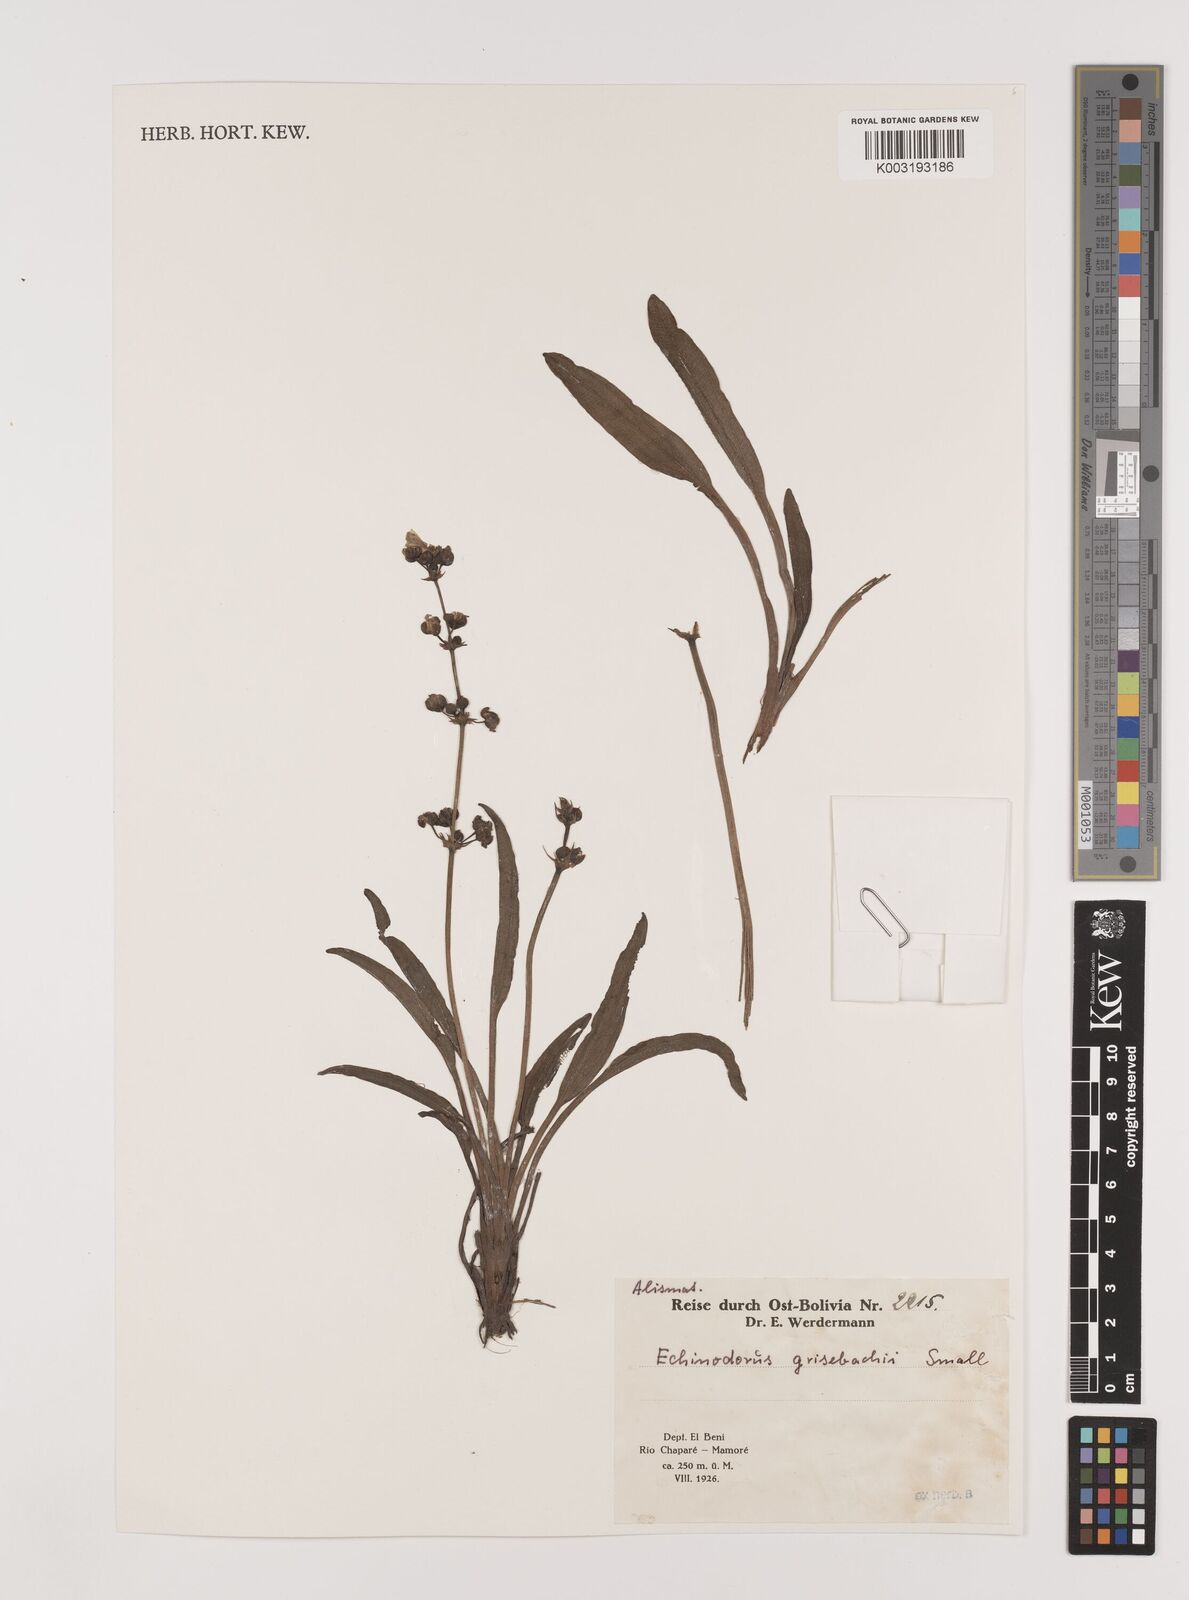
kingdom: Plantae
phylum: Tracheophyta
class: Liliopsida
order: Alismatales
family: Alismataceae
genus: Aquarius
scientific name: Aquarius grisebachii
